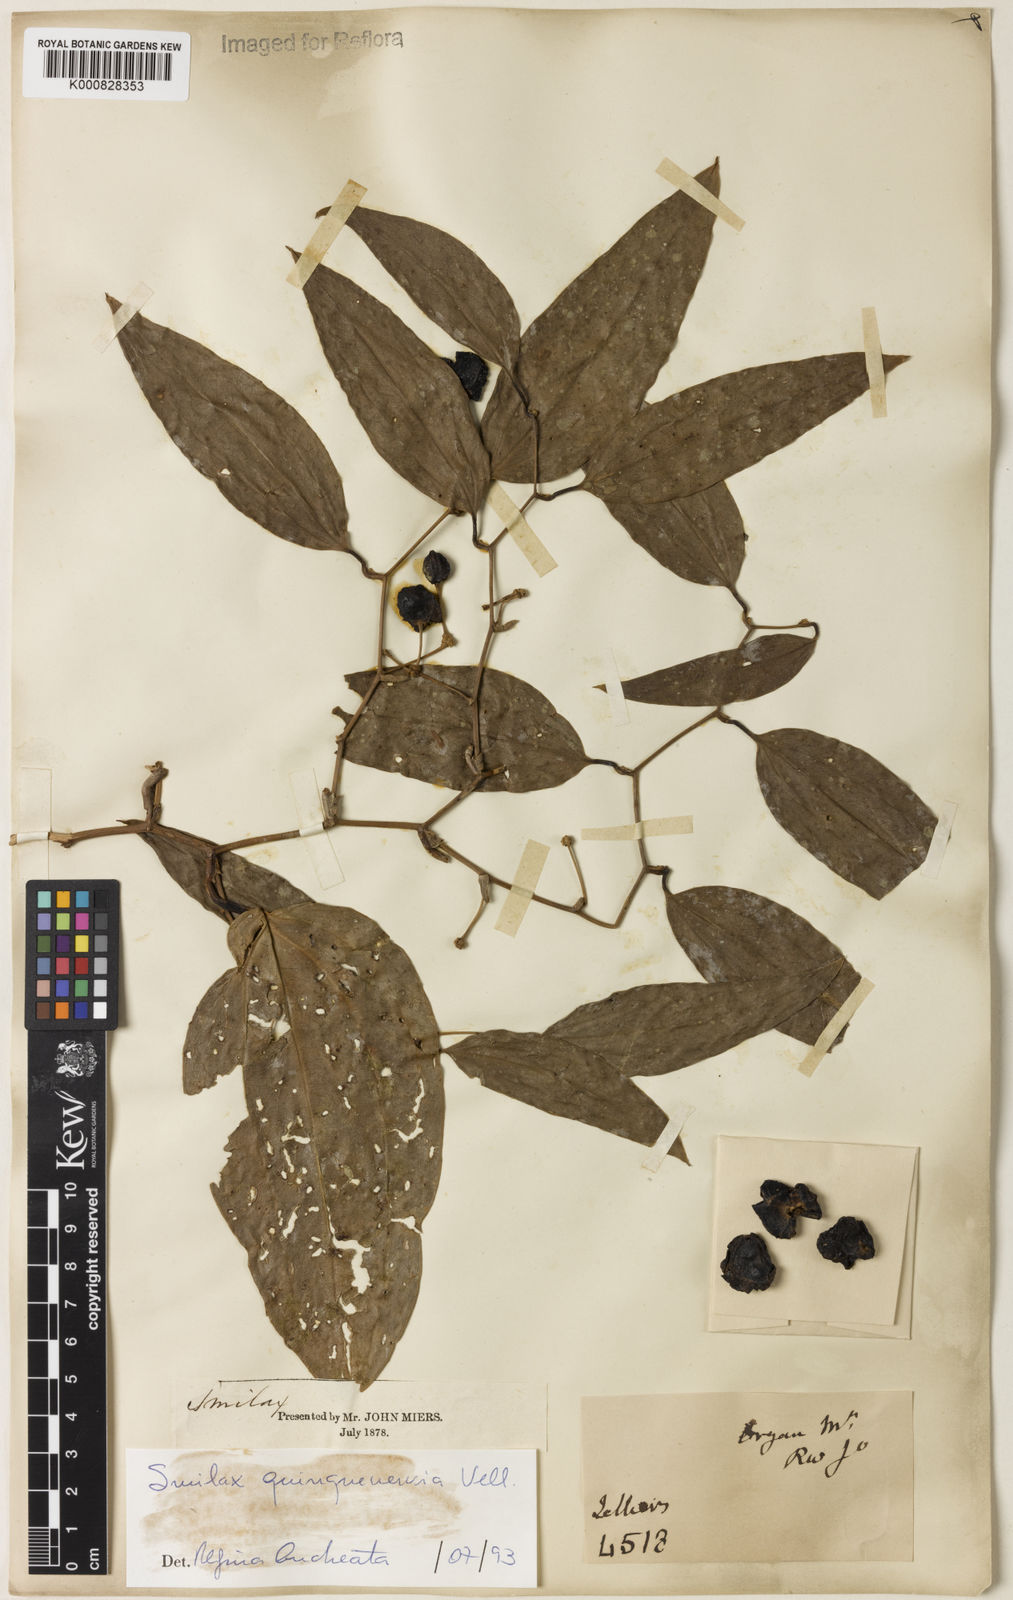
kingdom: Plantae
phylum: Tracheophyta
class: Liliopsida
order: Liliales
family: Smilacaceae
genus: Smilax
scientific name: Smilax quinquenervia
